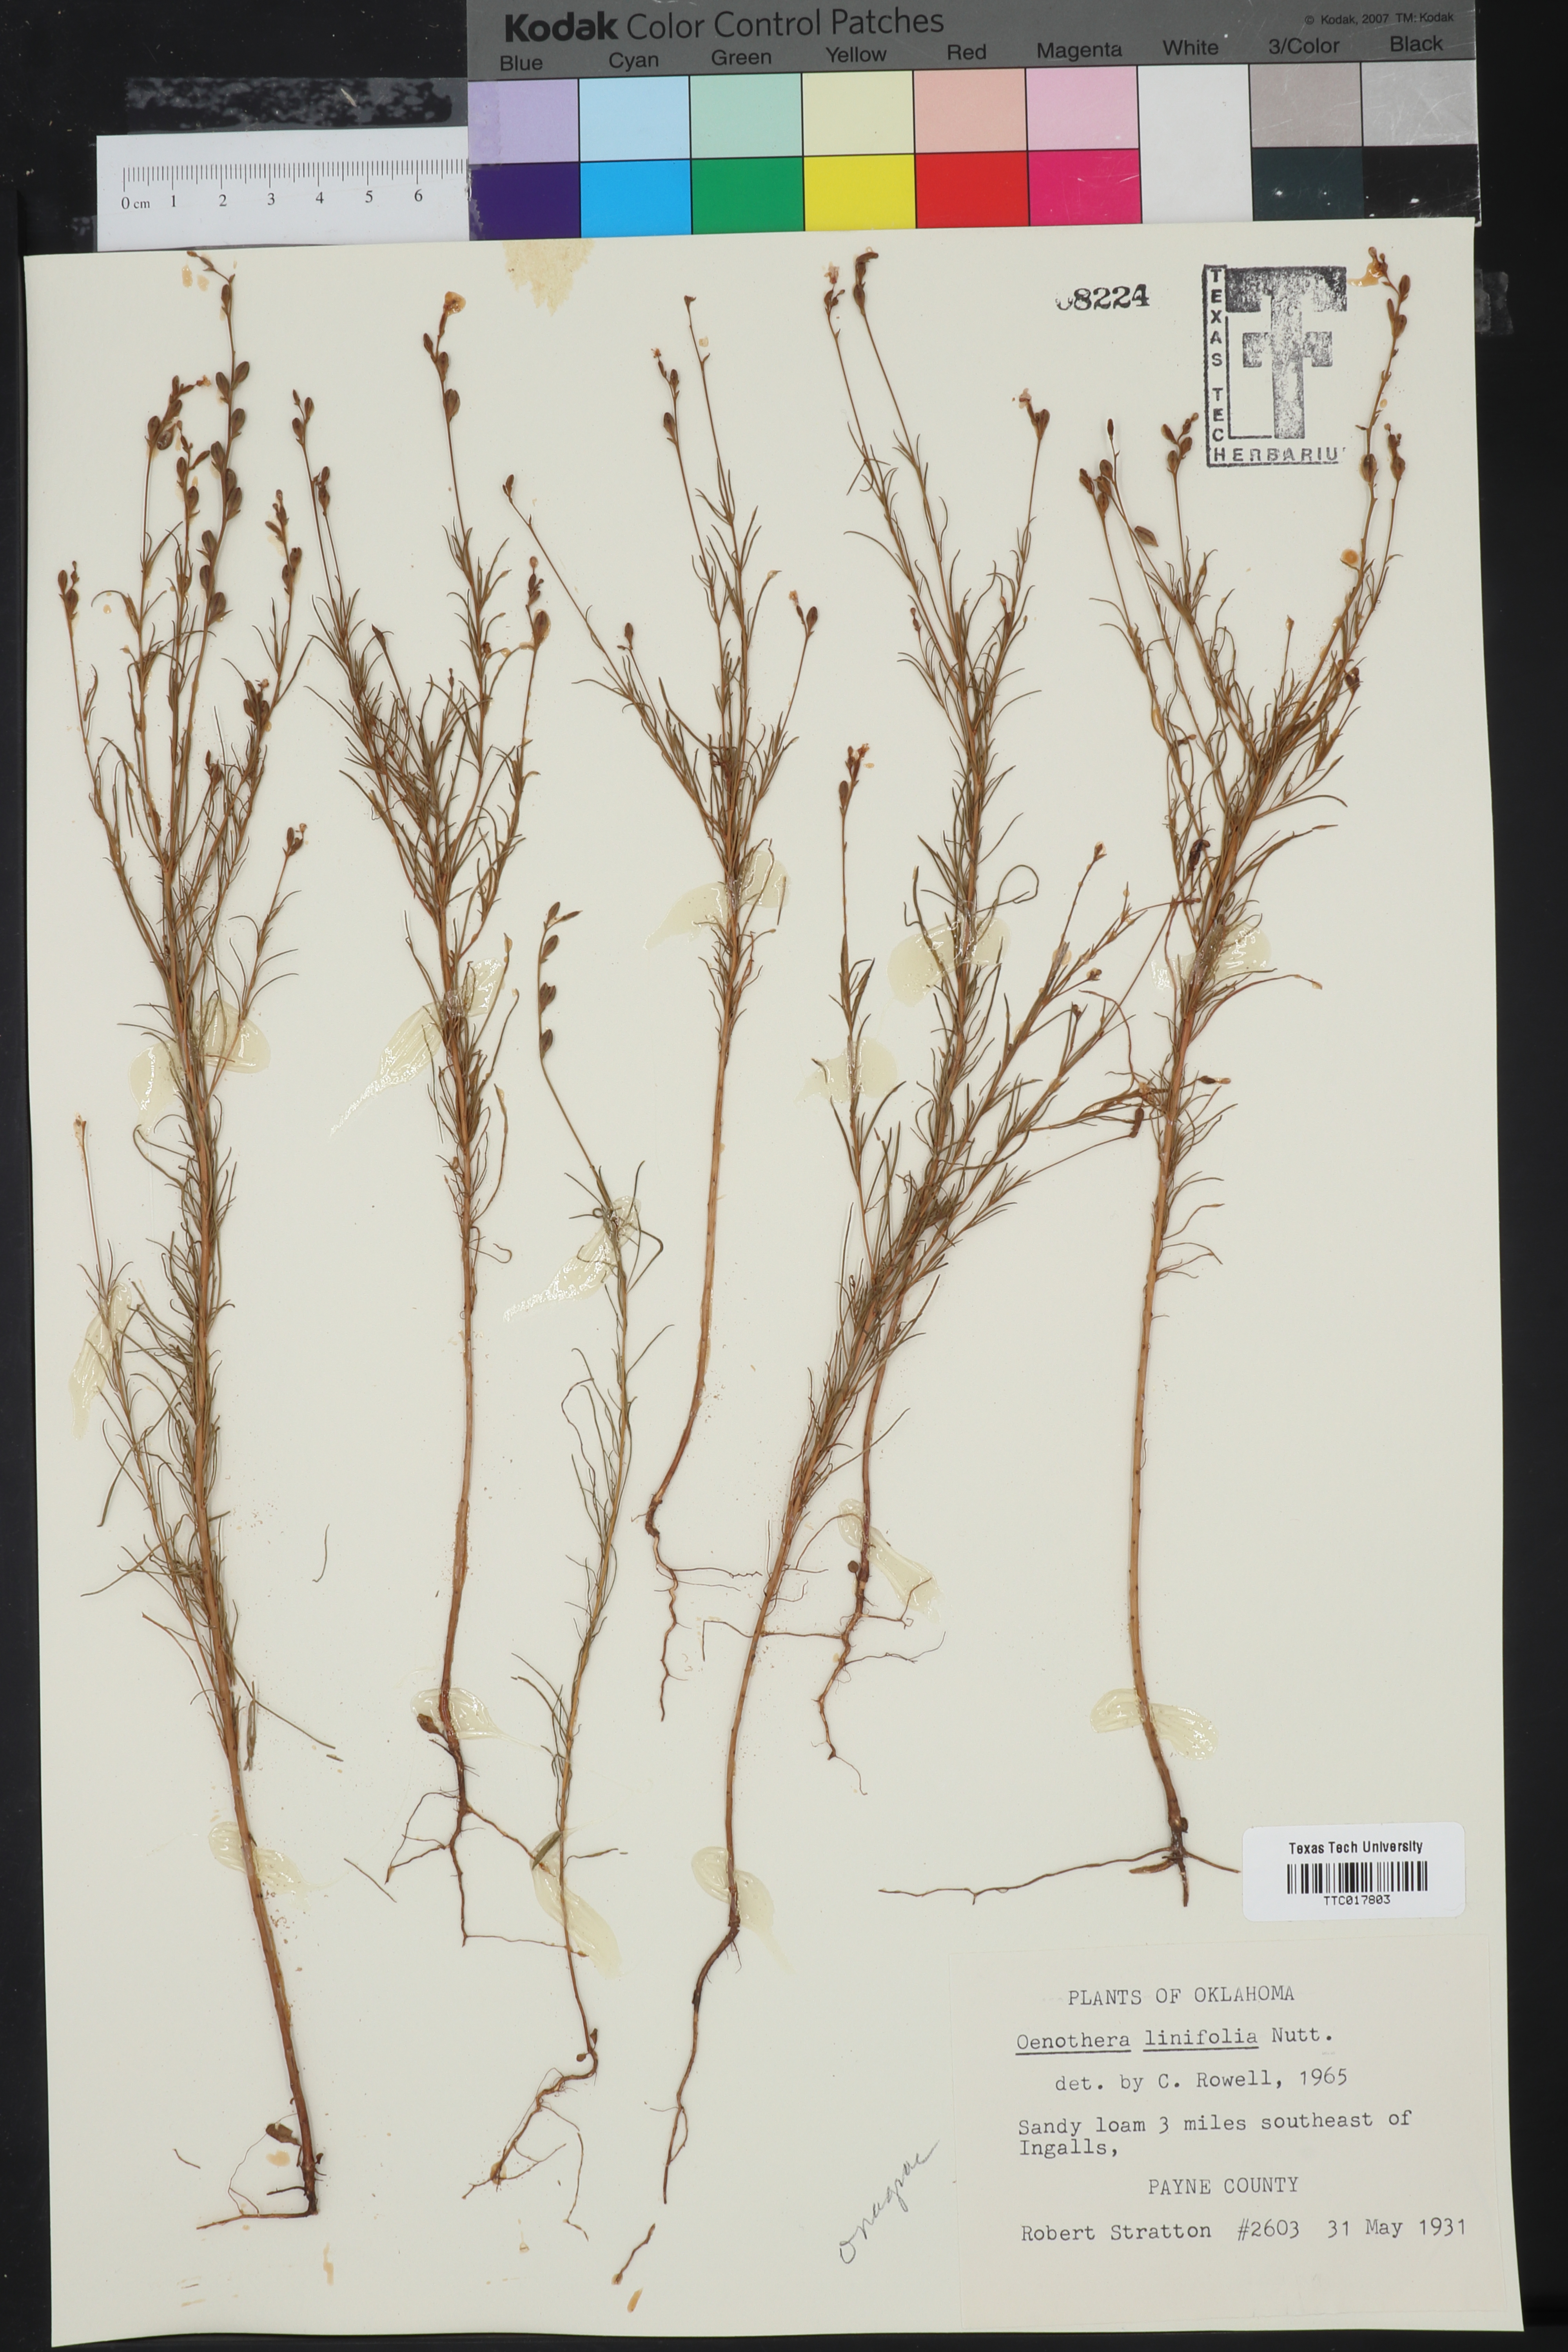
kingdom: Plantae
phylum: Tracheophyta
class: Magnoliopsida
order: Myrtales
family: Onagraceae
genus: Oenothera
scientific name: Oenothera linifolia
